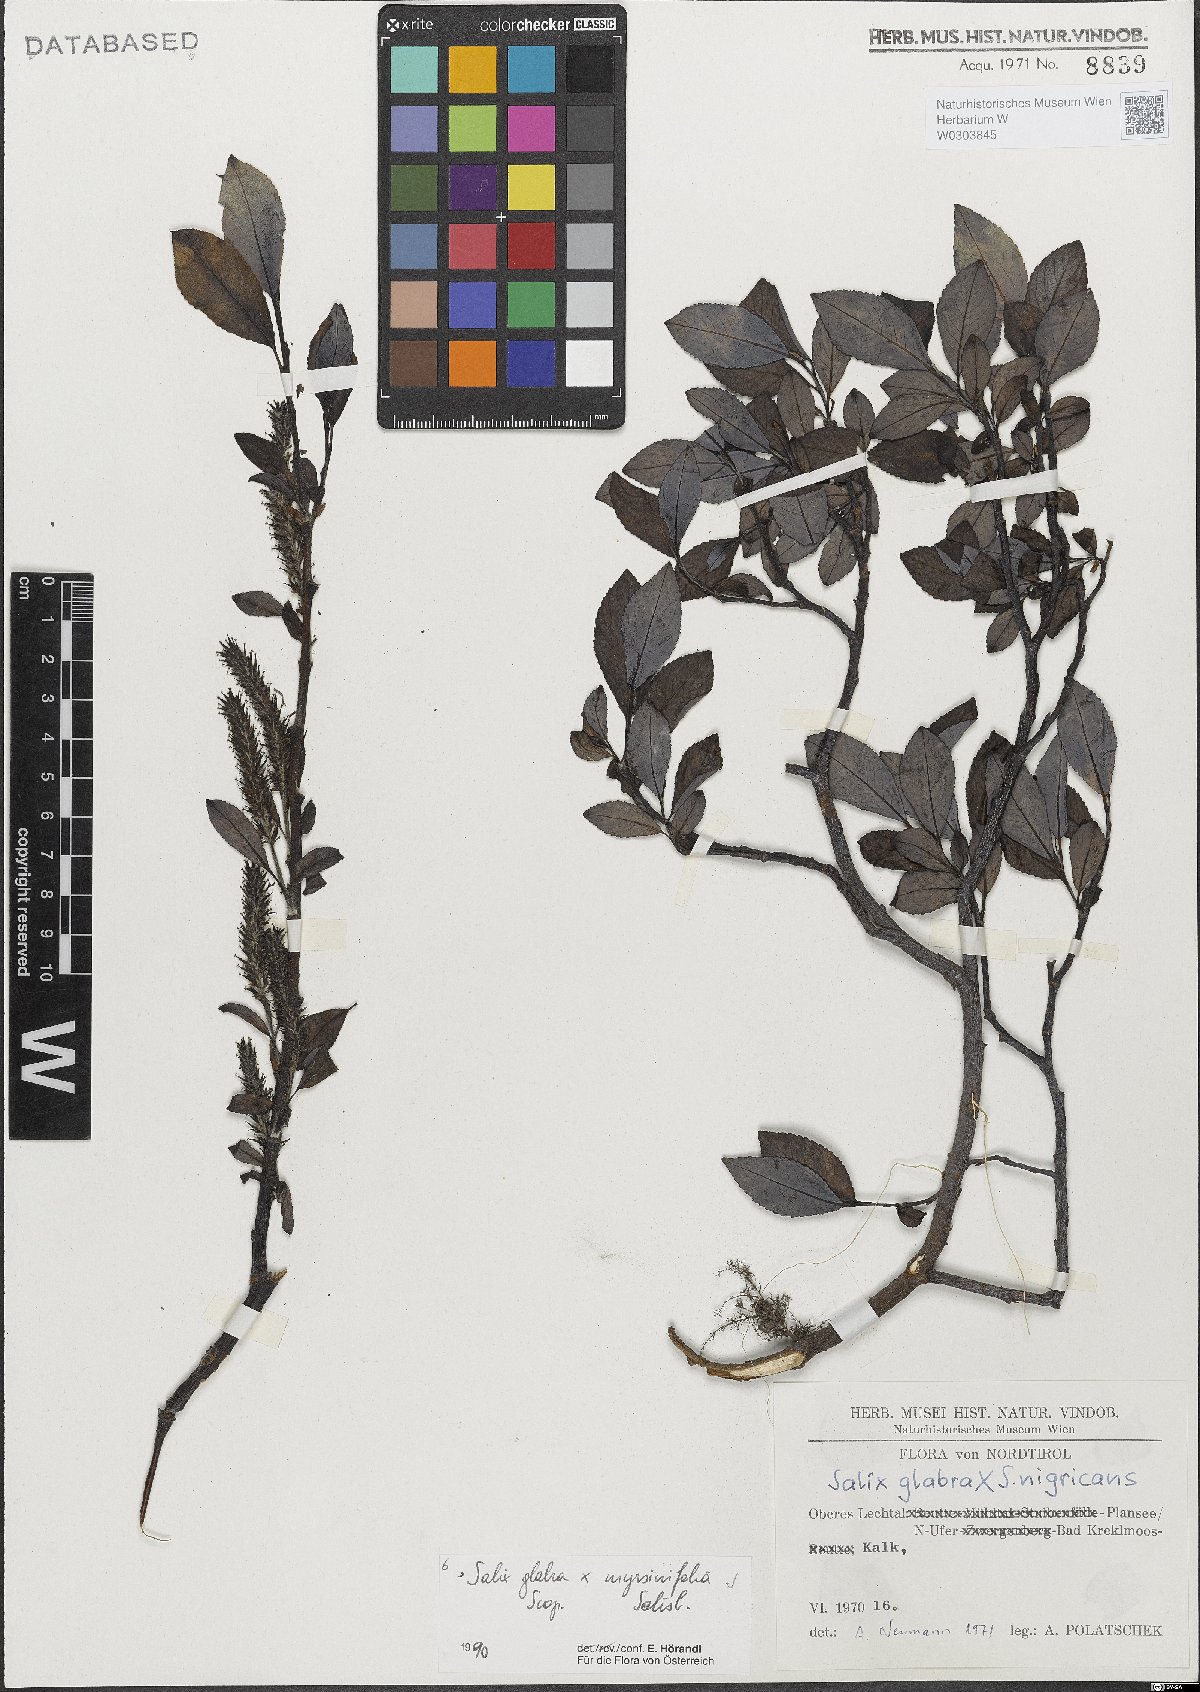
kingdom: Plantae
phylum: Tracheophyta
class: Magnoliopsida
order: Malpighiales
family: Salicaceae
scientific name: Salicaceae
